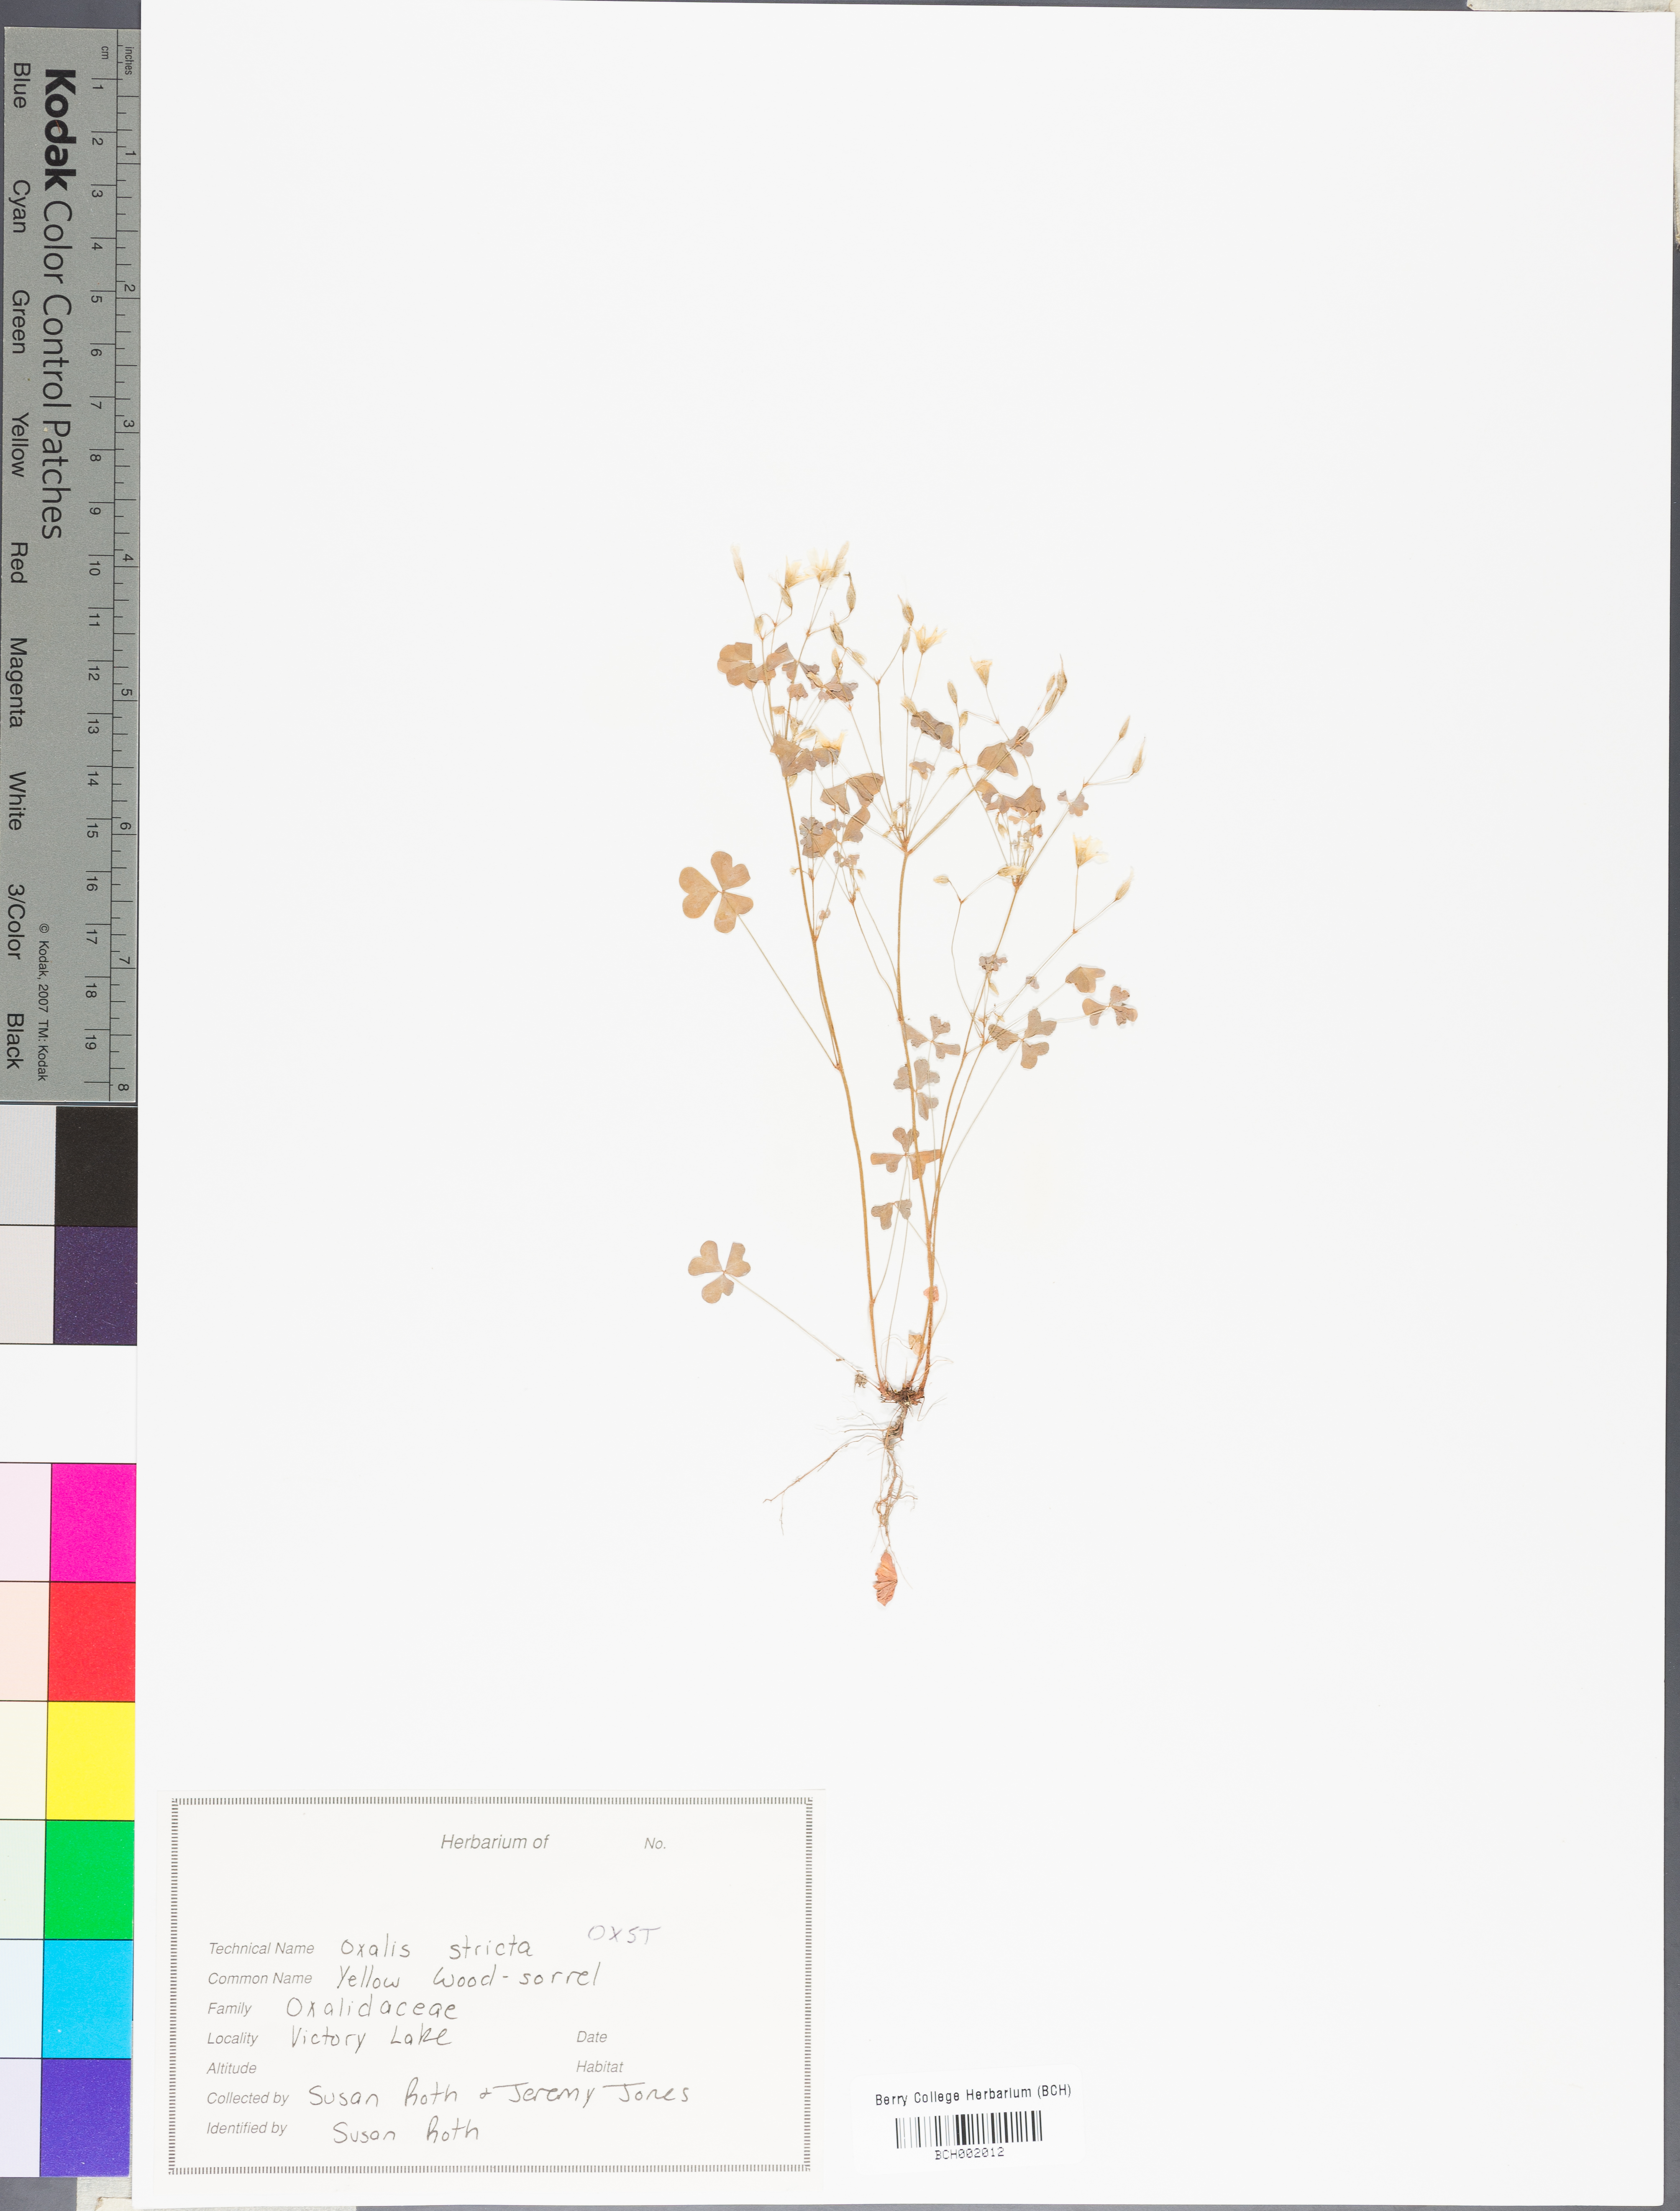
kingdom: Plantae
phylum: Tracheophyta
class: Magnoliopsida
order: Oxalidales
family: Oxalidaceae
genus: Oxalis
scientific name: Oxalis stricta
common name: Upright yellow-sorrel
